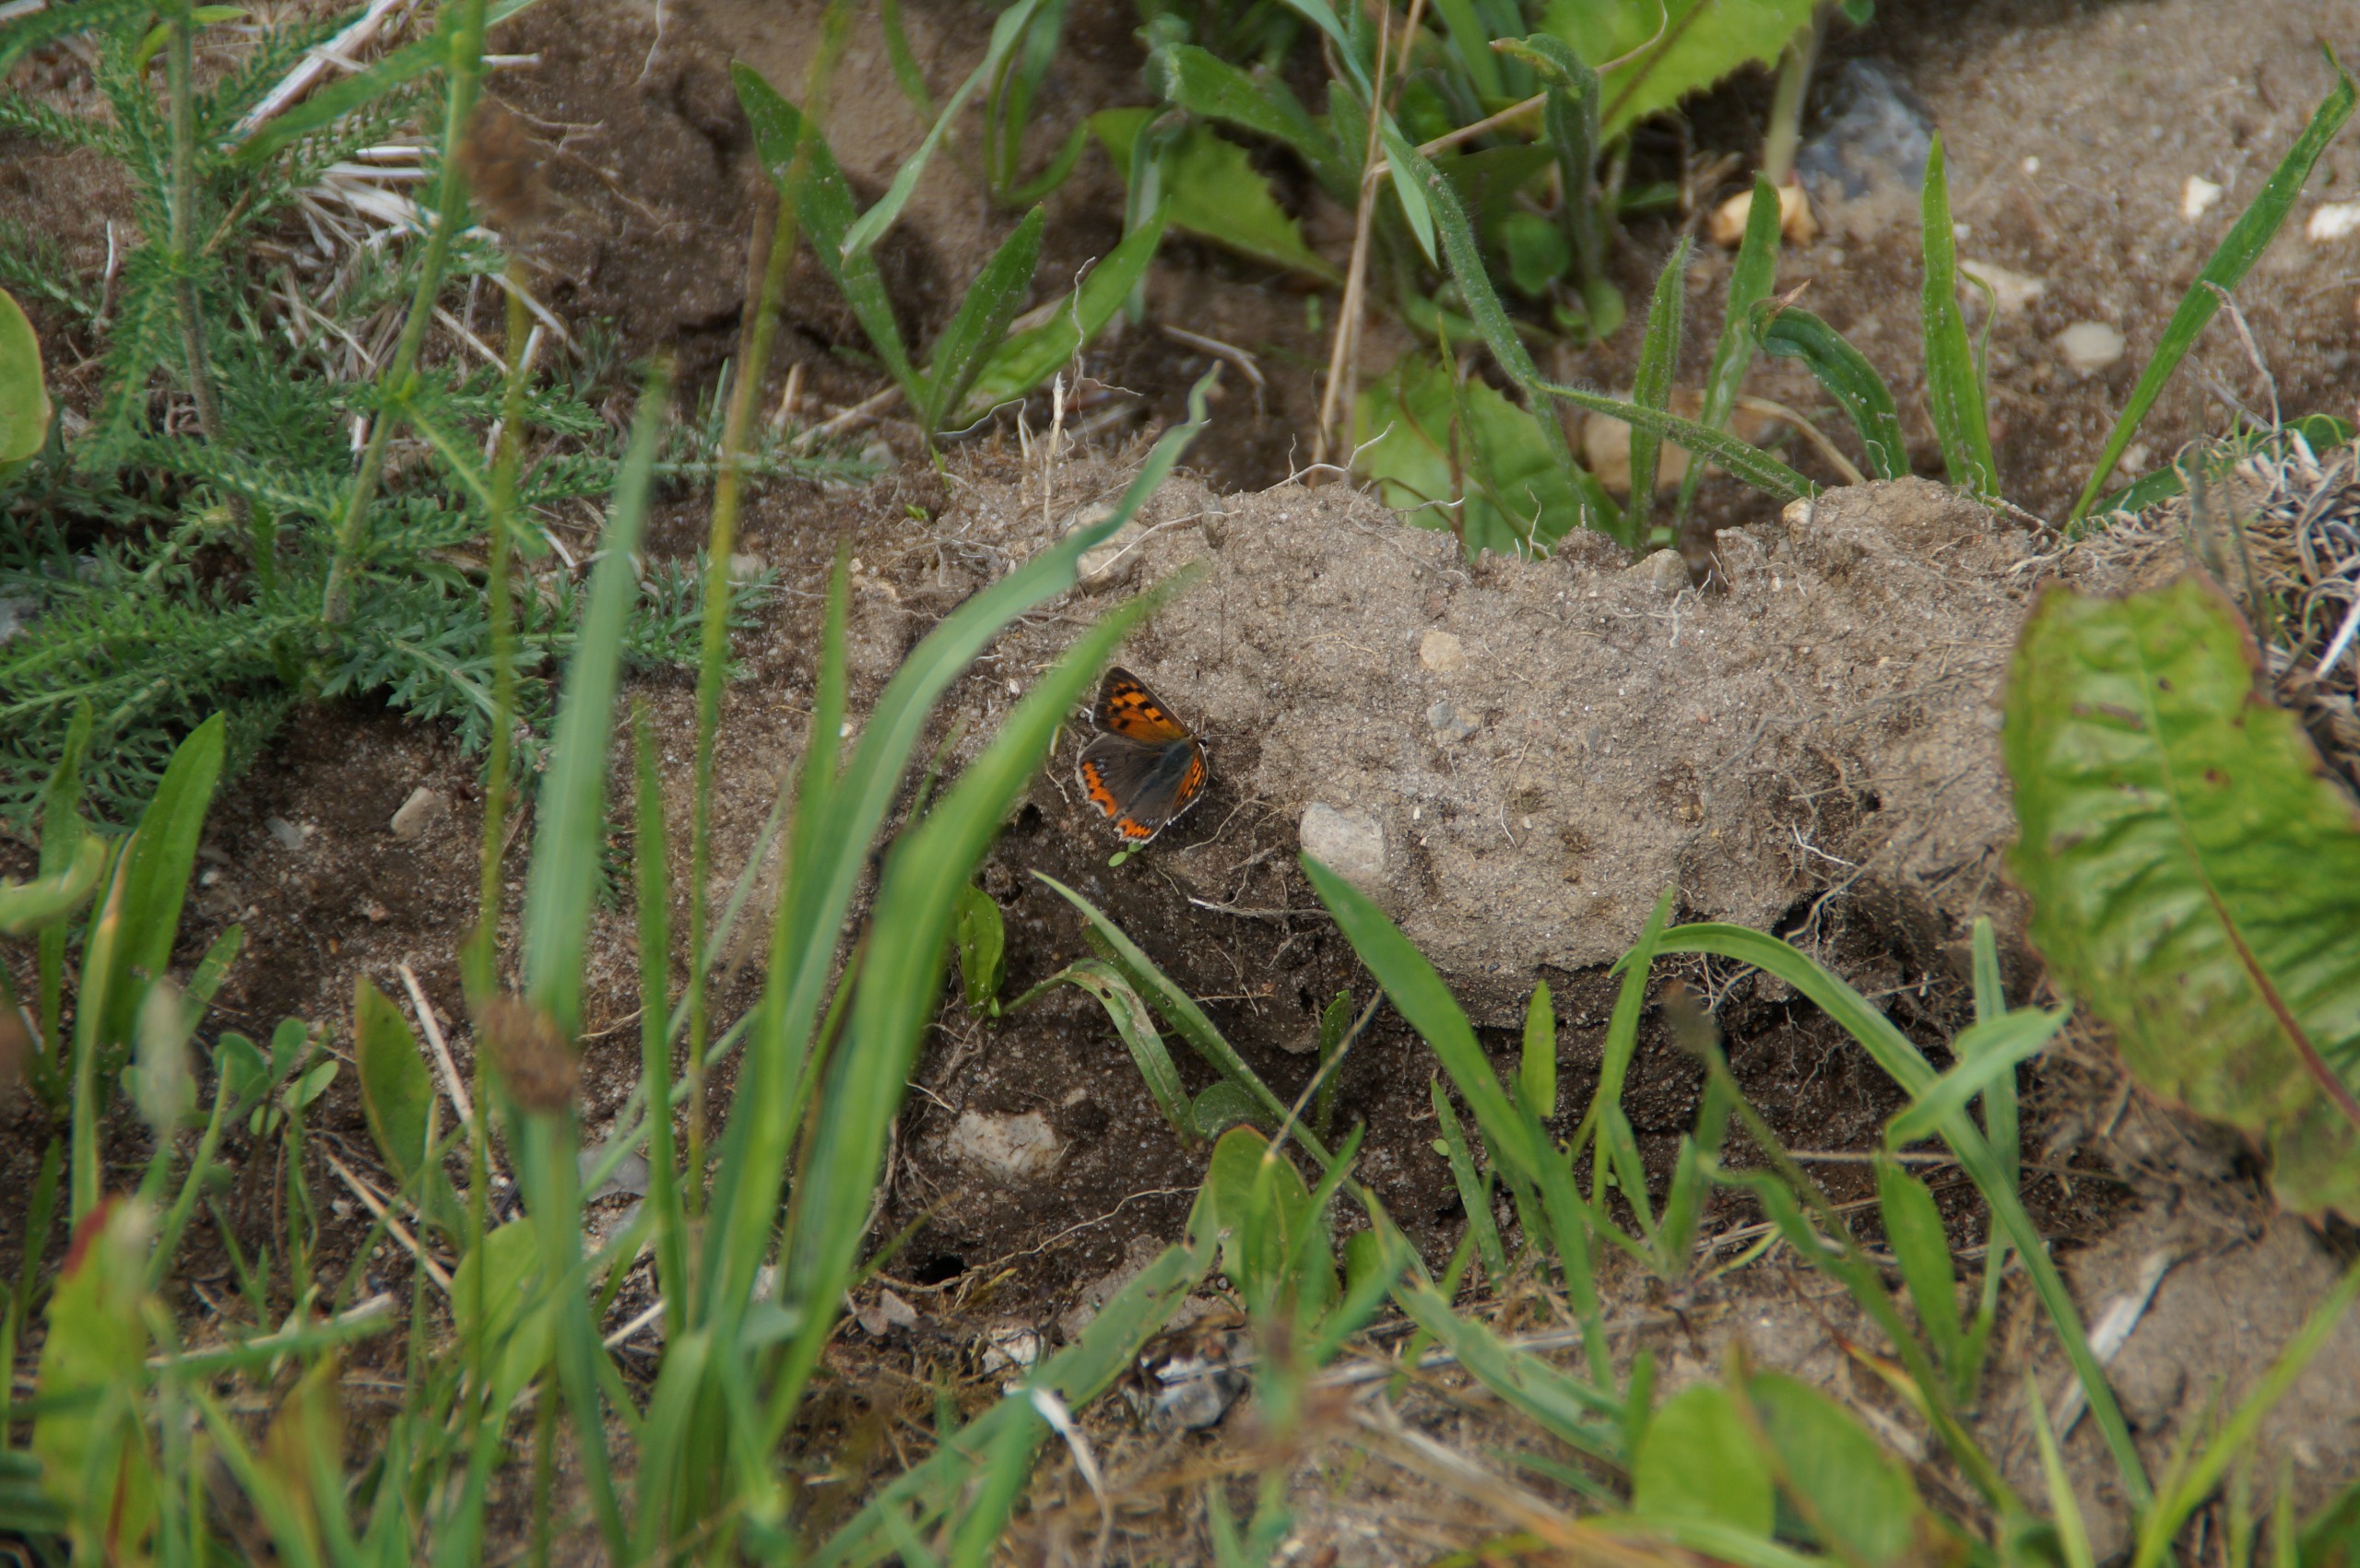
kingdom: Animalia
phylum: Arthropoda
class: Insecta
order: Lepidoptera
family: Lycaenidae
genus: Lycaena
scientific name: Lycaena phlaeas
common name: Lille ildfugl
